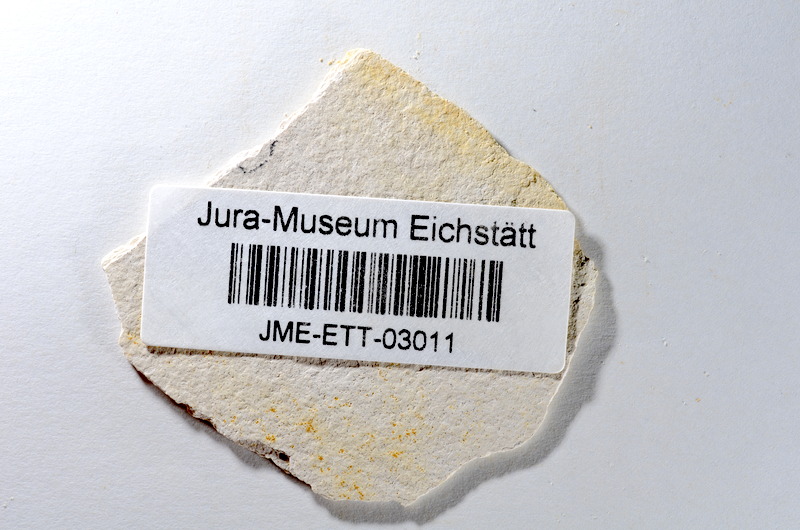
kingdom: Animalia
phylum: Chordata
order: Salmoniformes
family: Orthogonikleithridae
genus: Orthogonikleithrus
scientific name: Orthogonikleithrus hoelli
